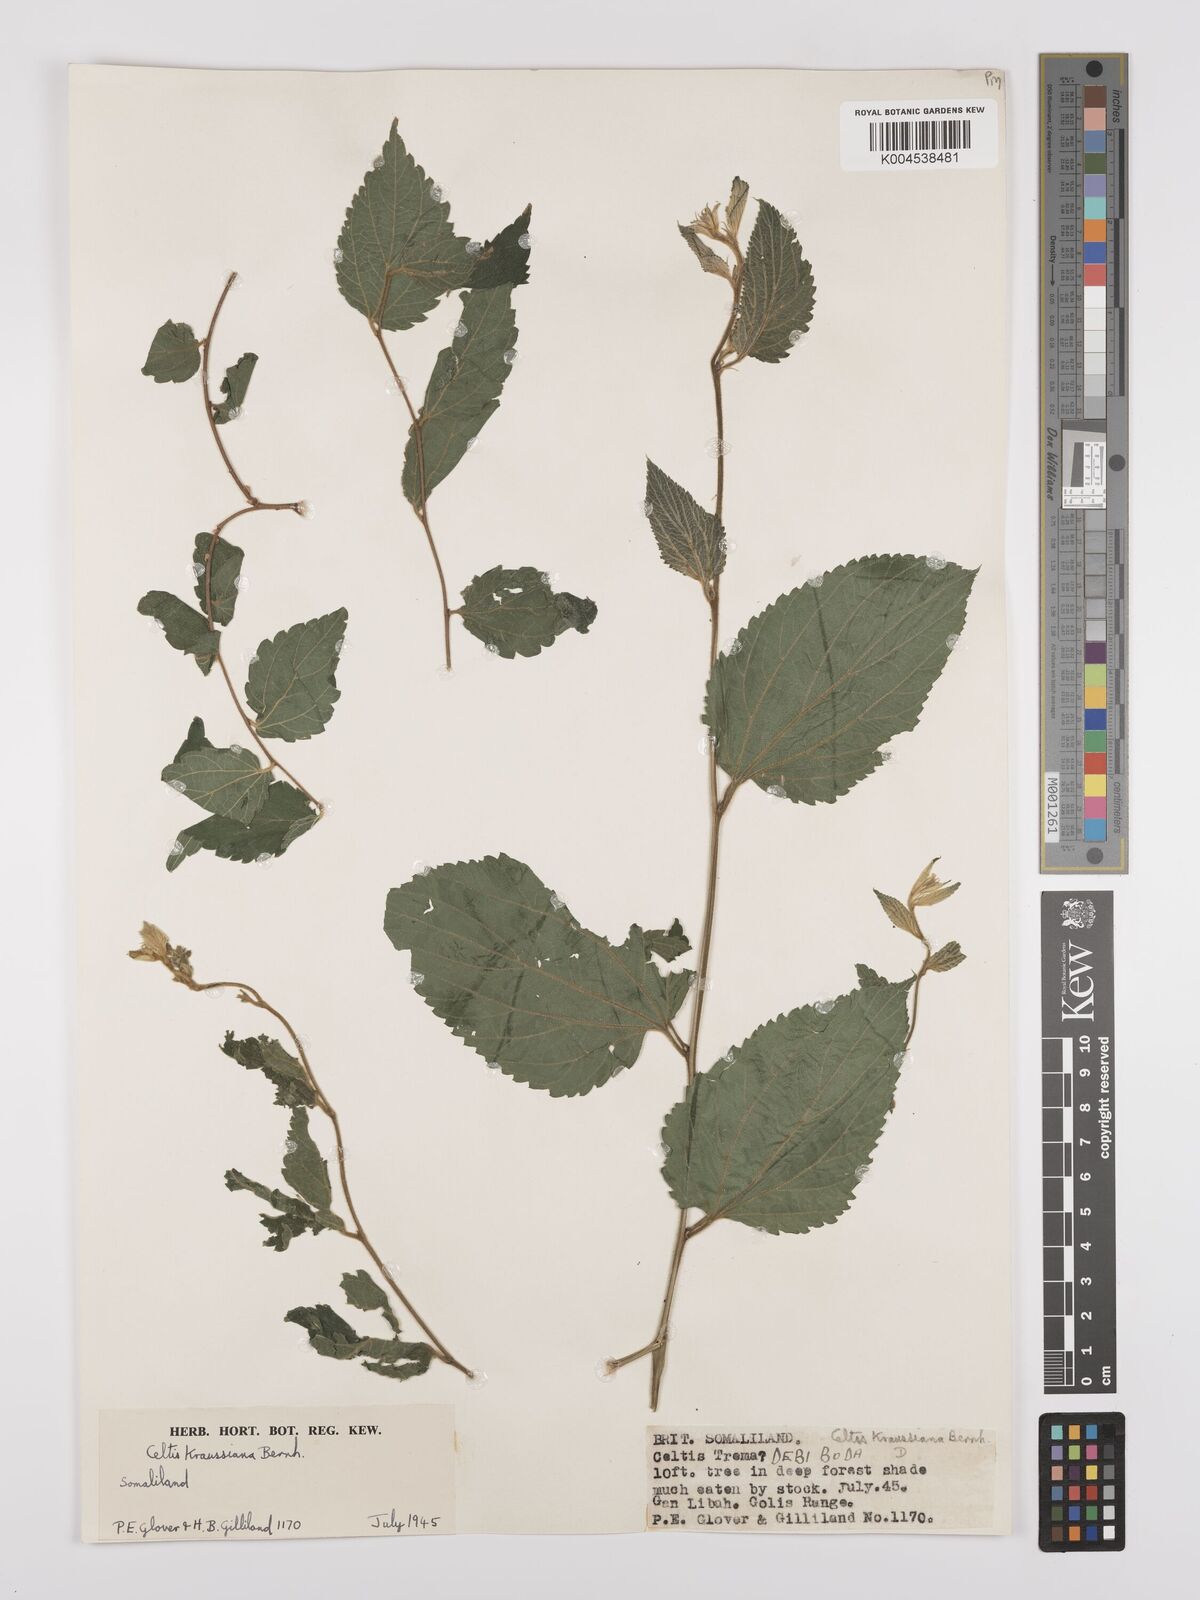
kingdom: Plantae
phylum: Tracheophyta
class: Magnoliopsida
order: Rosales
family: Cannabaceae
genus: Celtis
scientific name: Celtis africana
